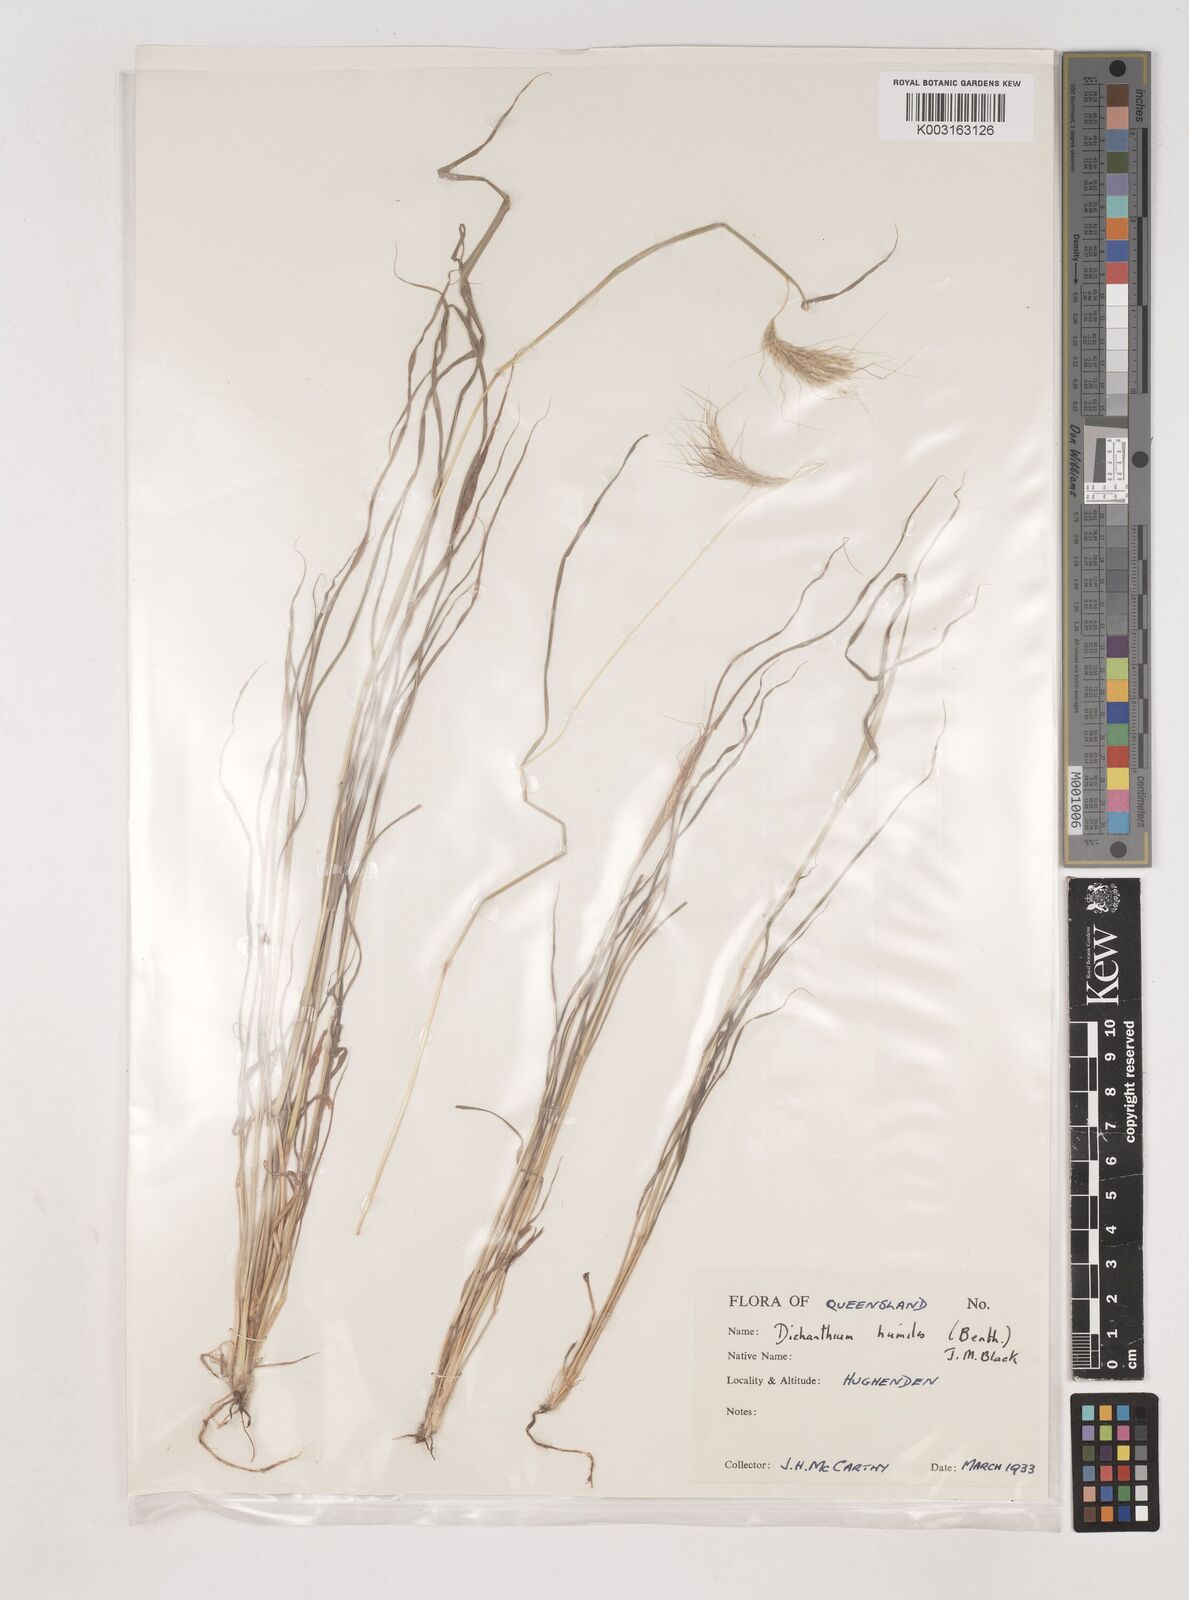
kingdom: Plantae
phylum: Tracheophyta
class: Liliopsida
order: Poales
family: Poaceae
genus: Dichanthium
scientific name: Dichanthium sericeum
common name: Silky bluestem
